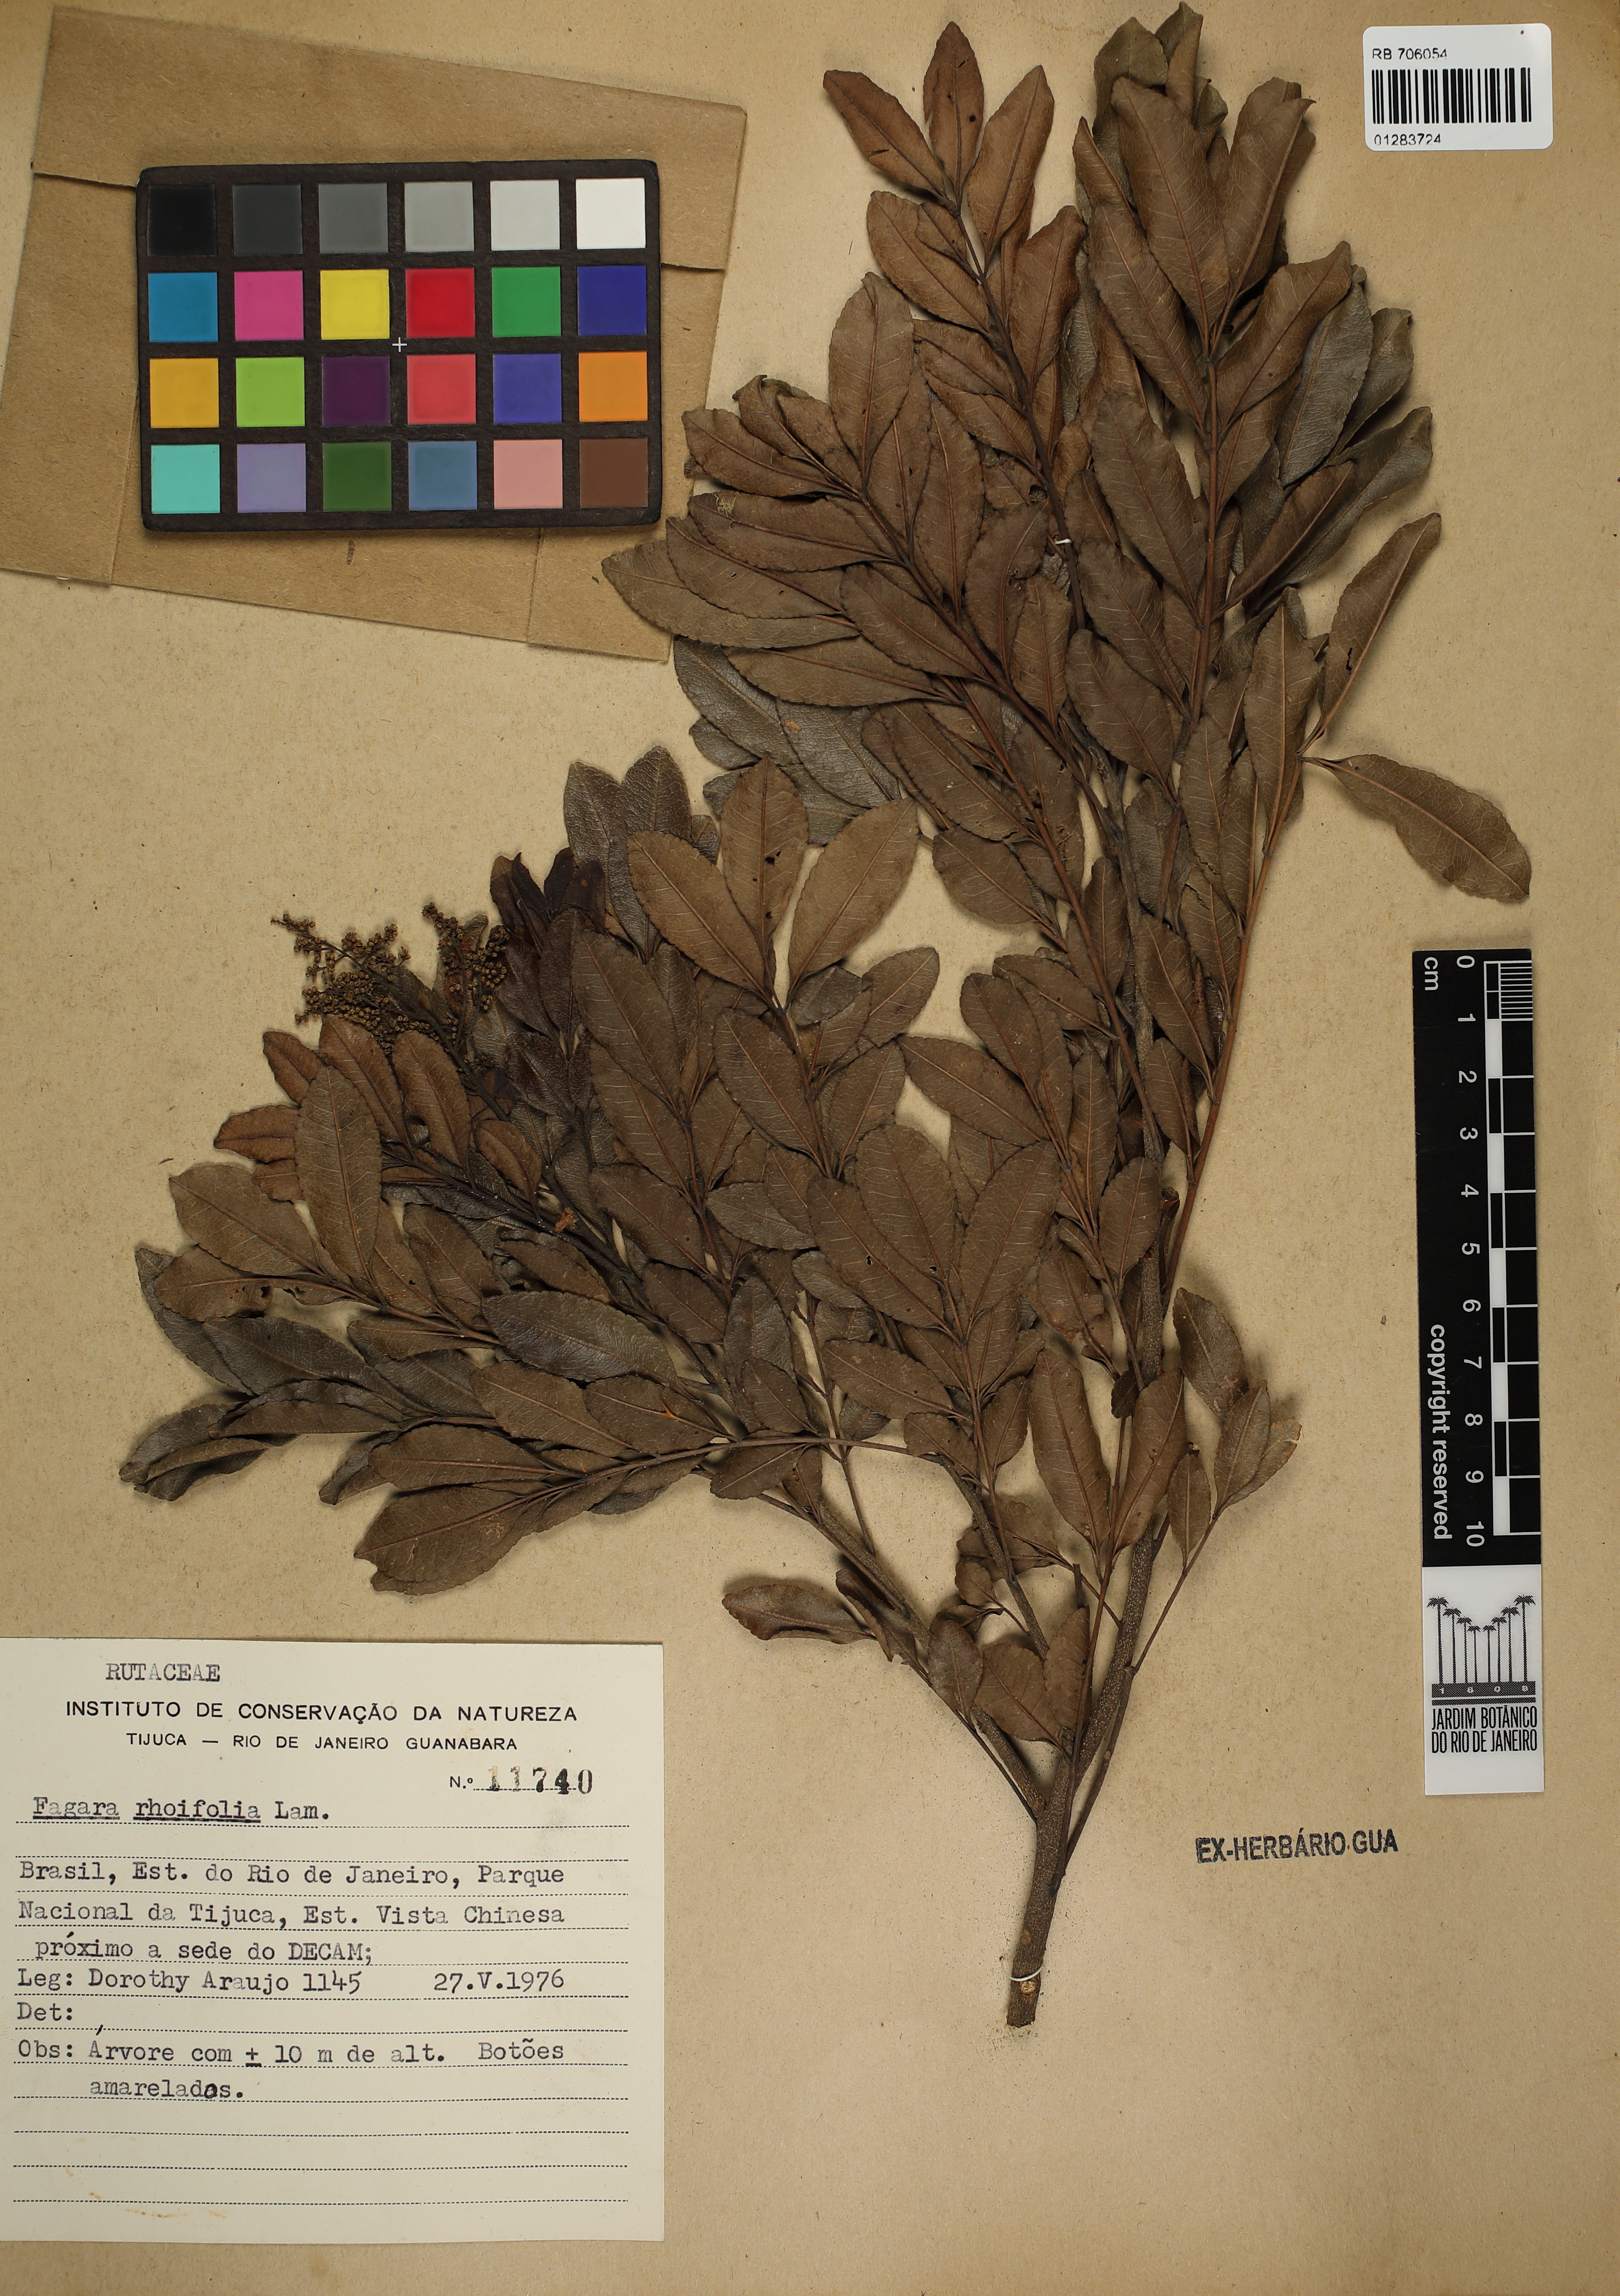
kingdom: Plantae
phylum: Tracheophyta
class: Magnoliopsida
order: Sapindales
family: Rutaceae
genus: Zanthoxylum
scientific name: Zanthoxylum rhoifolium
